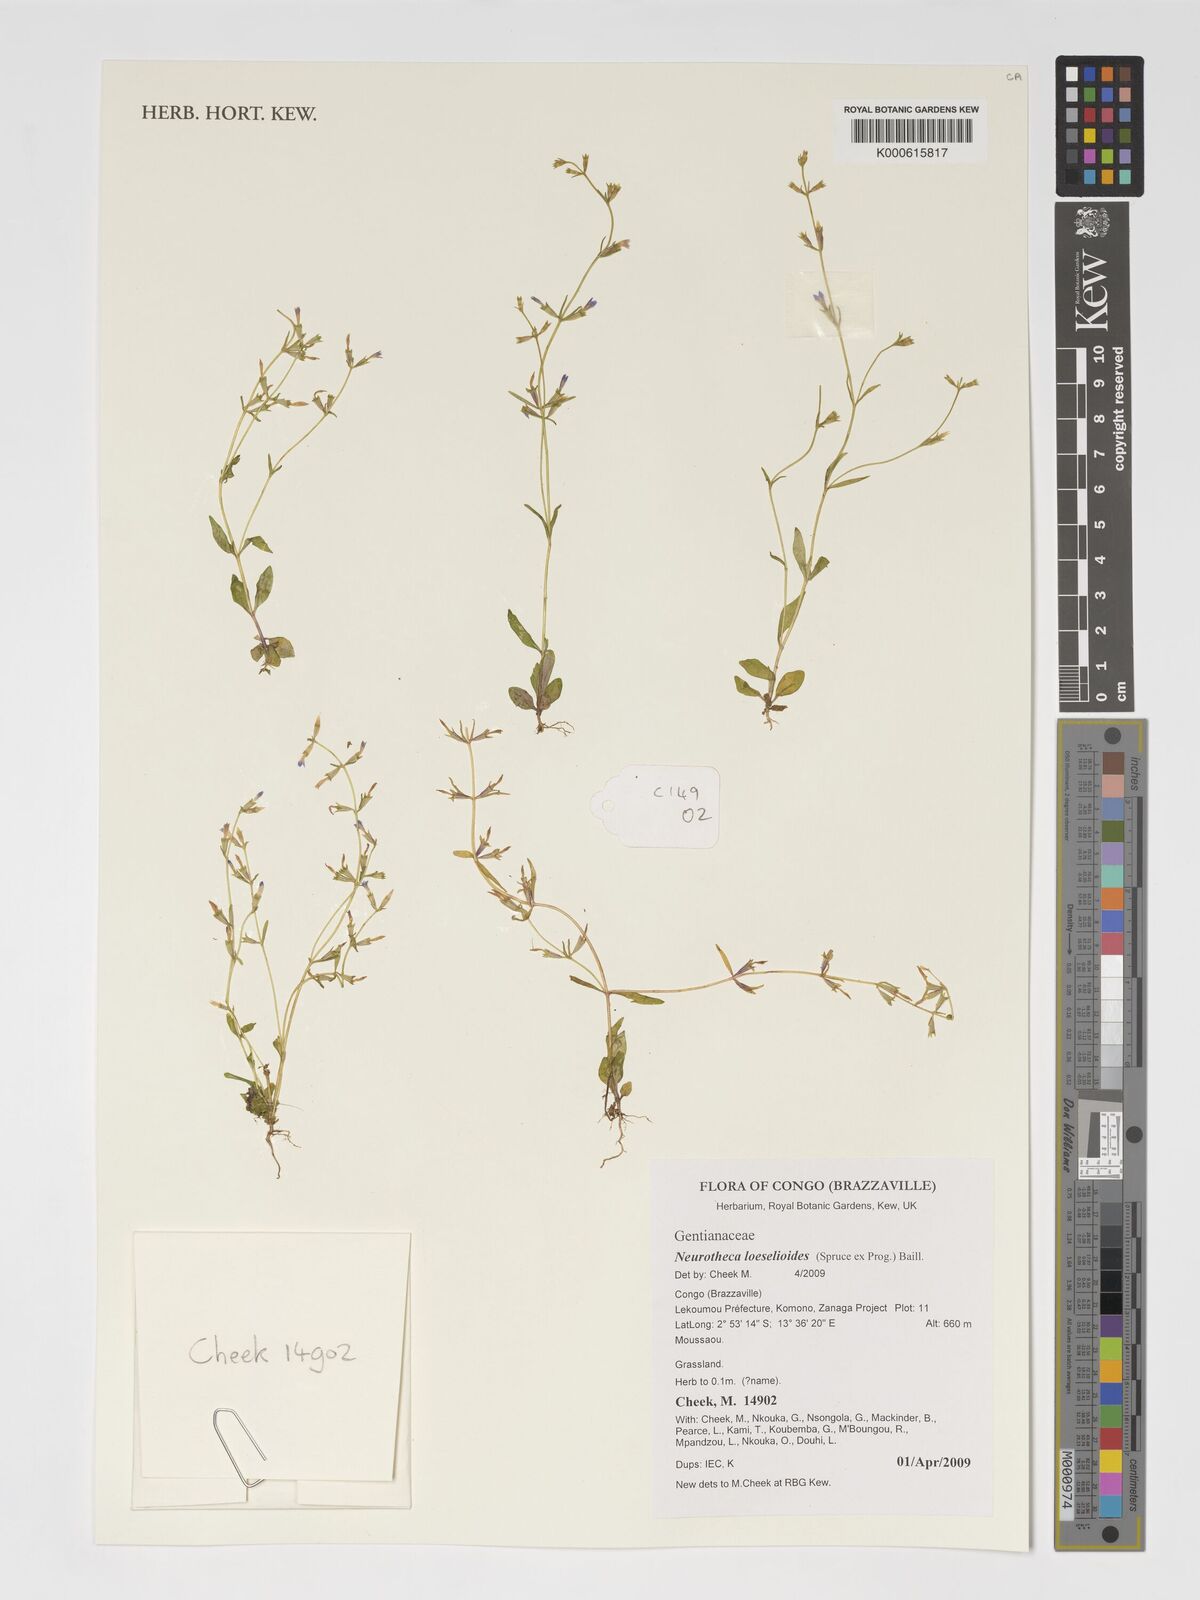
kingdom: Plantae
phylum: Tracheophyta
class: Magnoliopsida
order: Gentianales
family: Gentianaceae
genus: Neurotheca
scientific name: Neurotheca loeselioides
